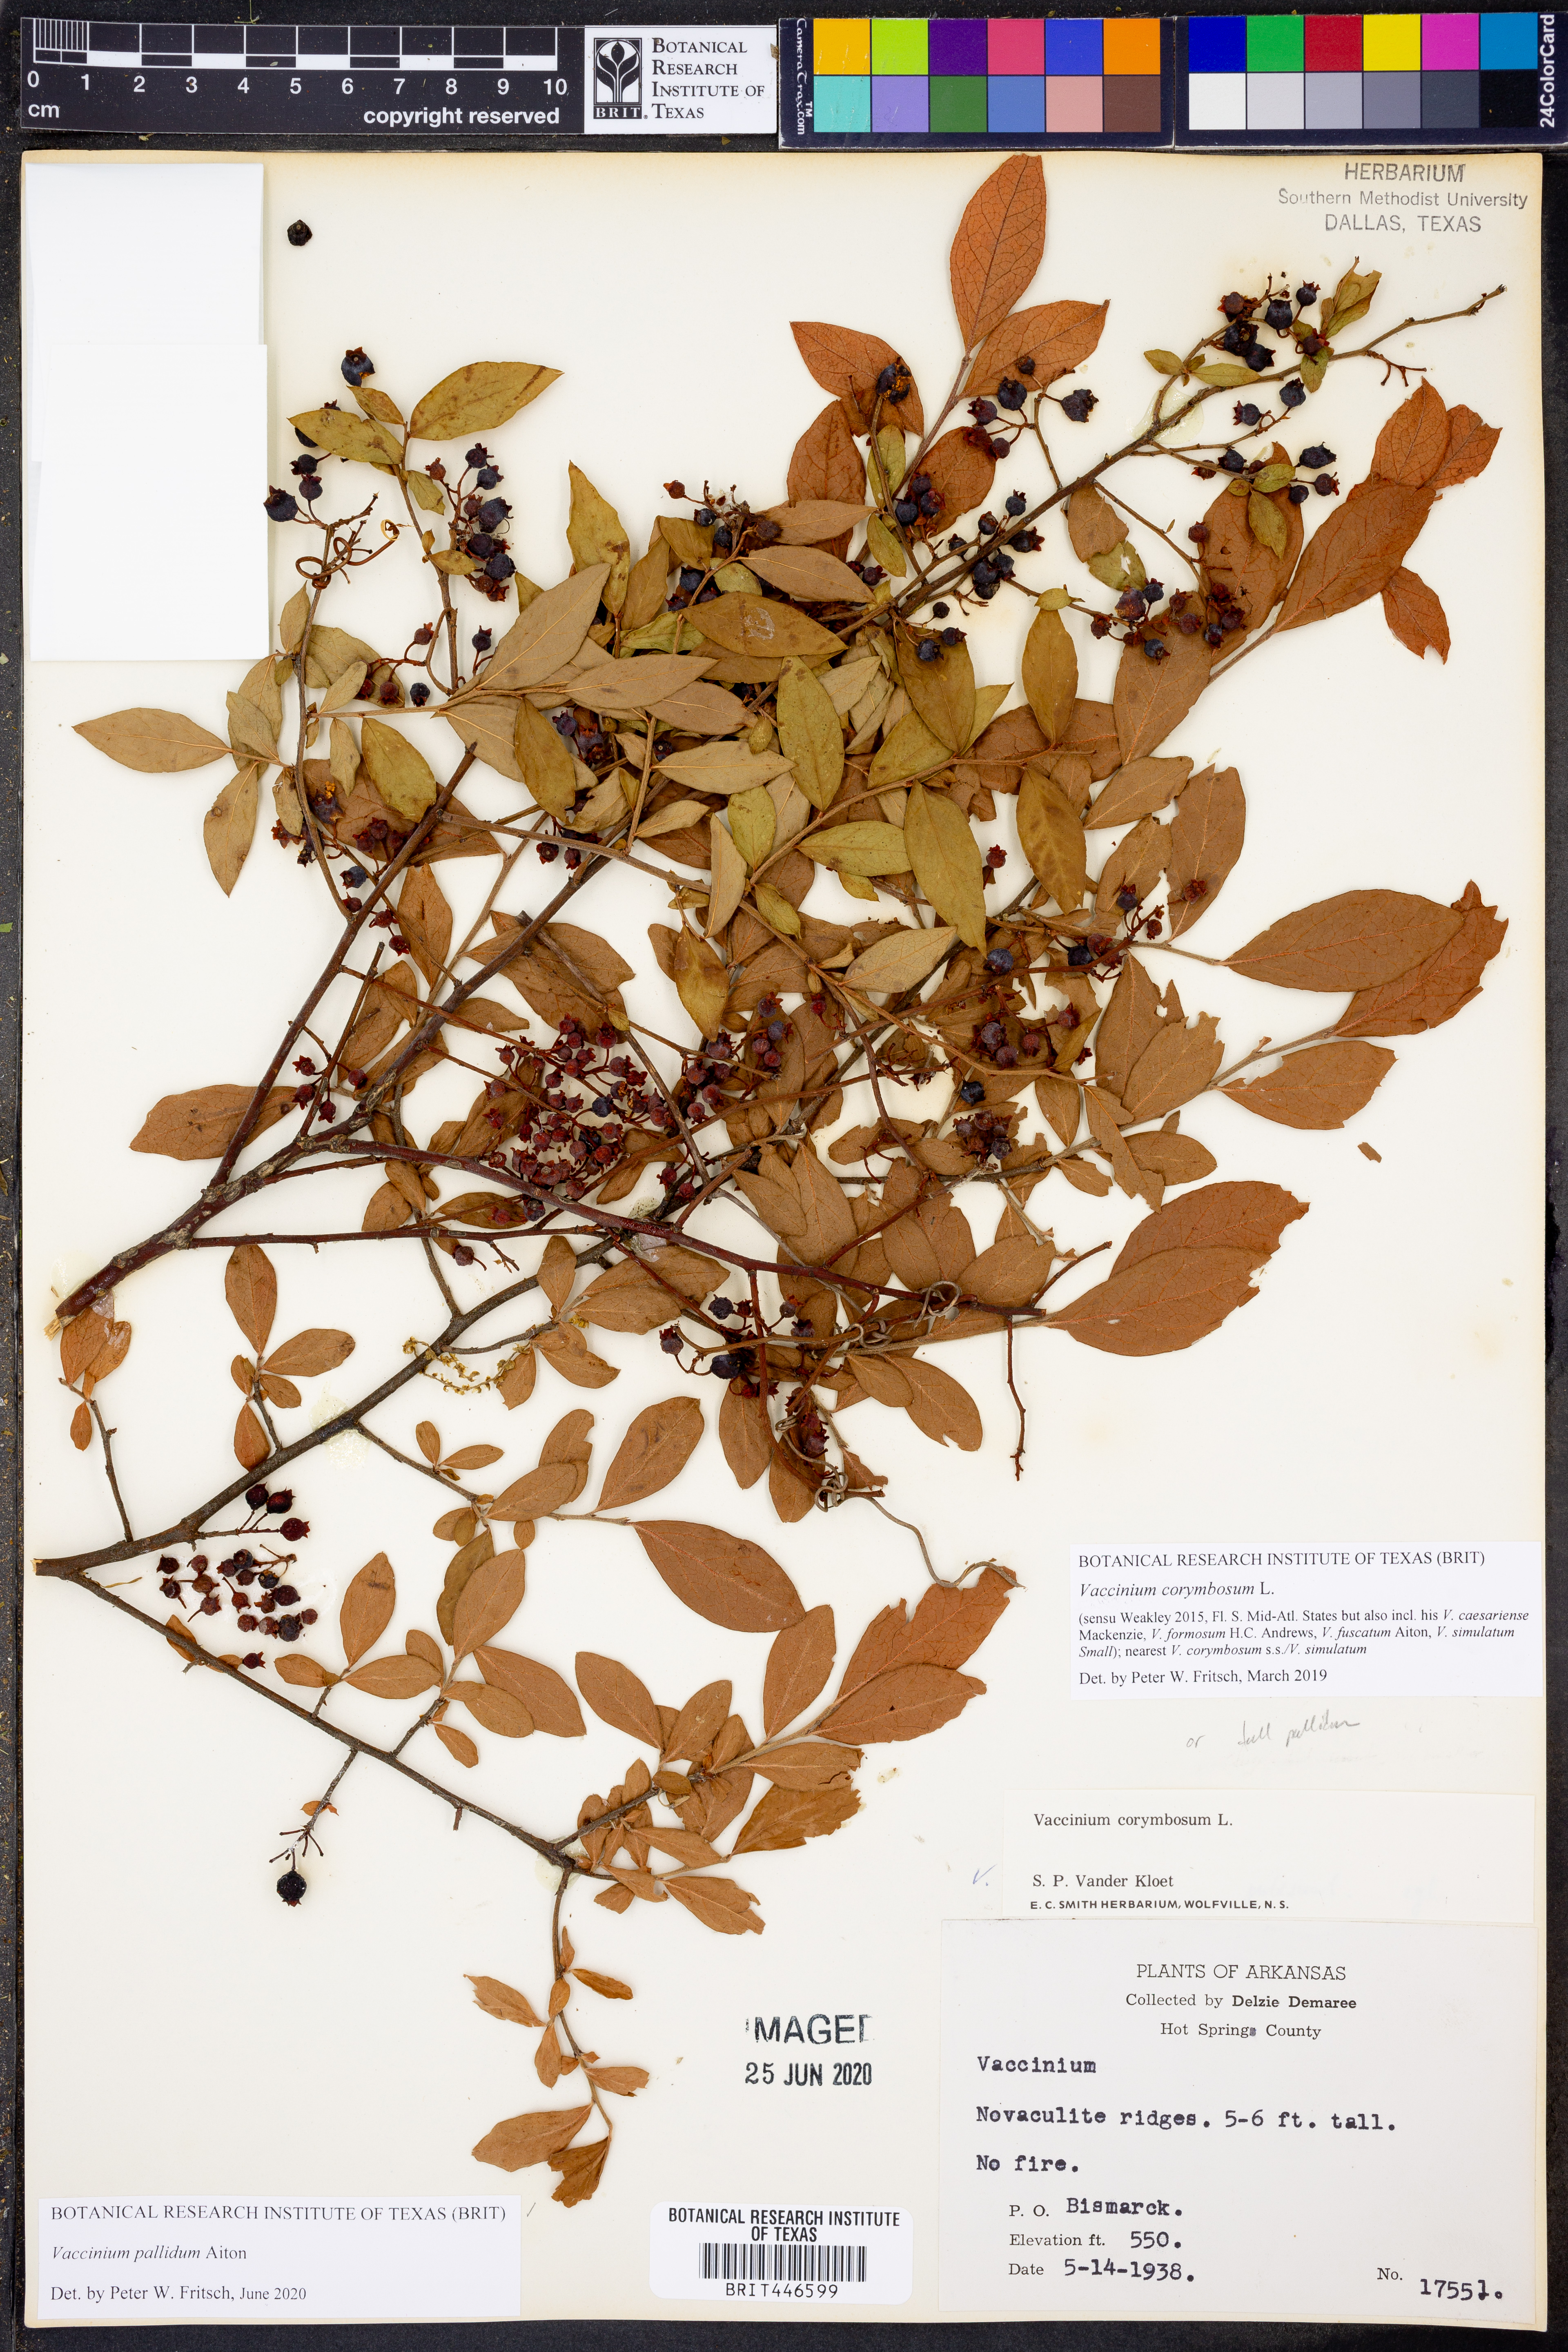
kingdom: Plantae
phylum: Tracheophyta
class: Magnoliopsida
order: Ericales
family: Ericaceae
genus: Vaccinium
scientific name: Vaccinium pallidum
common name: Blue ridge blueberry
